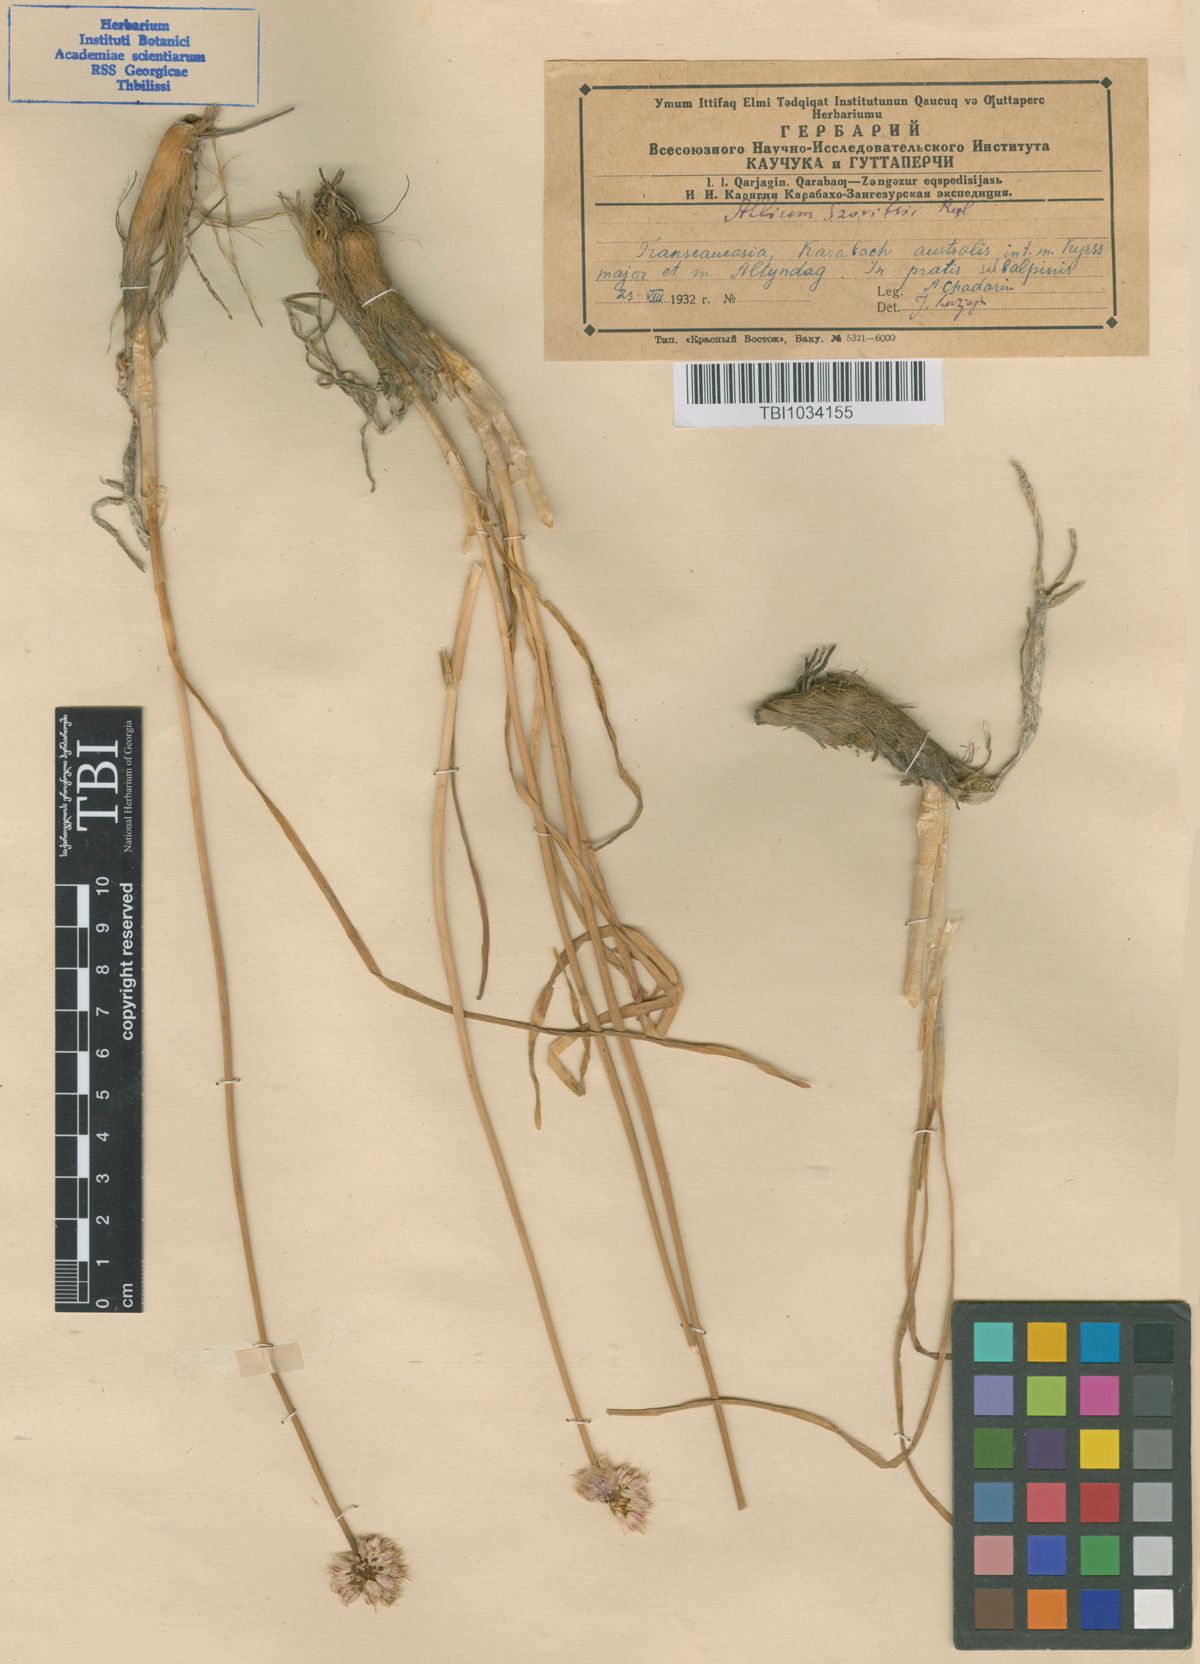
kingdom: Plantae
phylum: Tracheophyta
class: Liliopsida
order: Asparagales
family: Amaryllidaceae
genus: Allium
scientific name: Allium szovitsii
